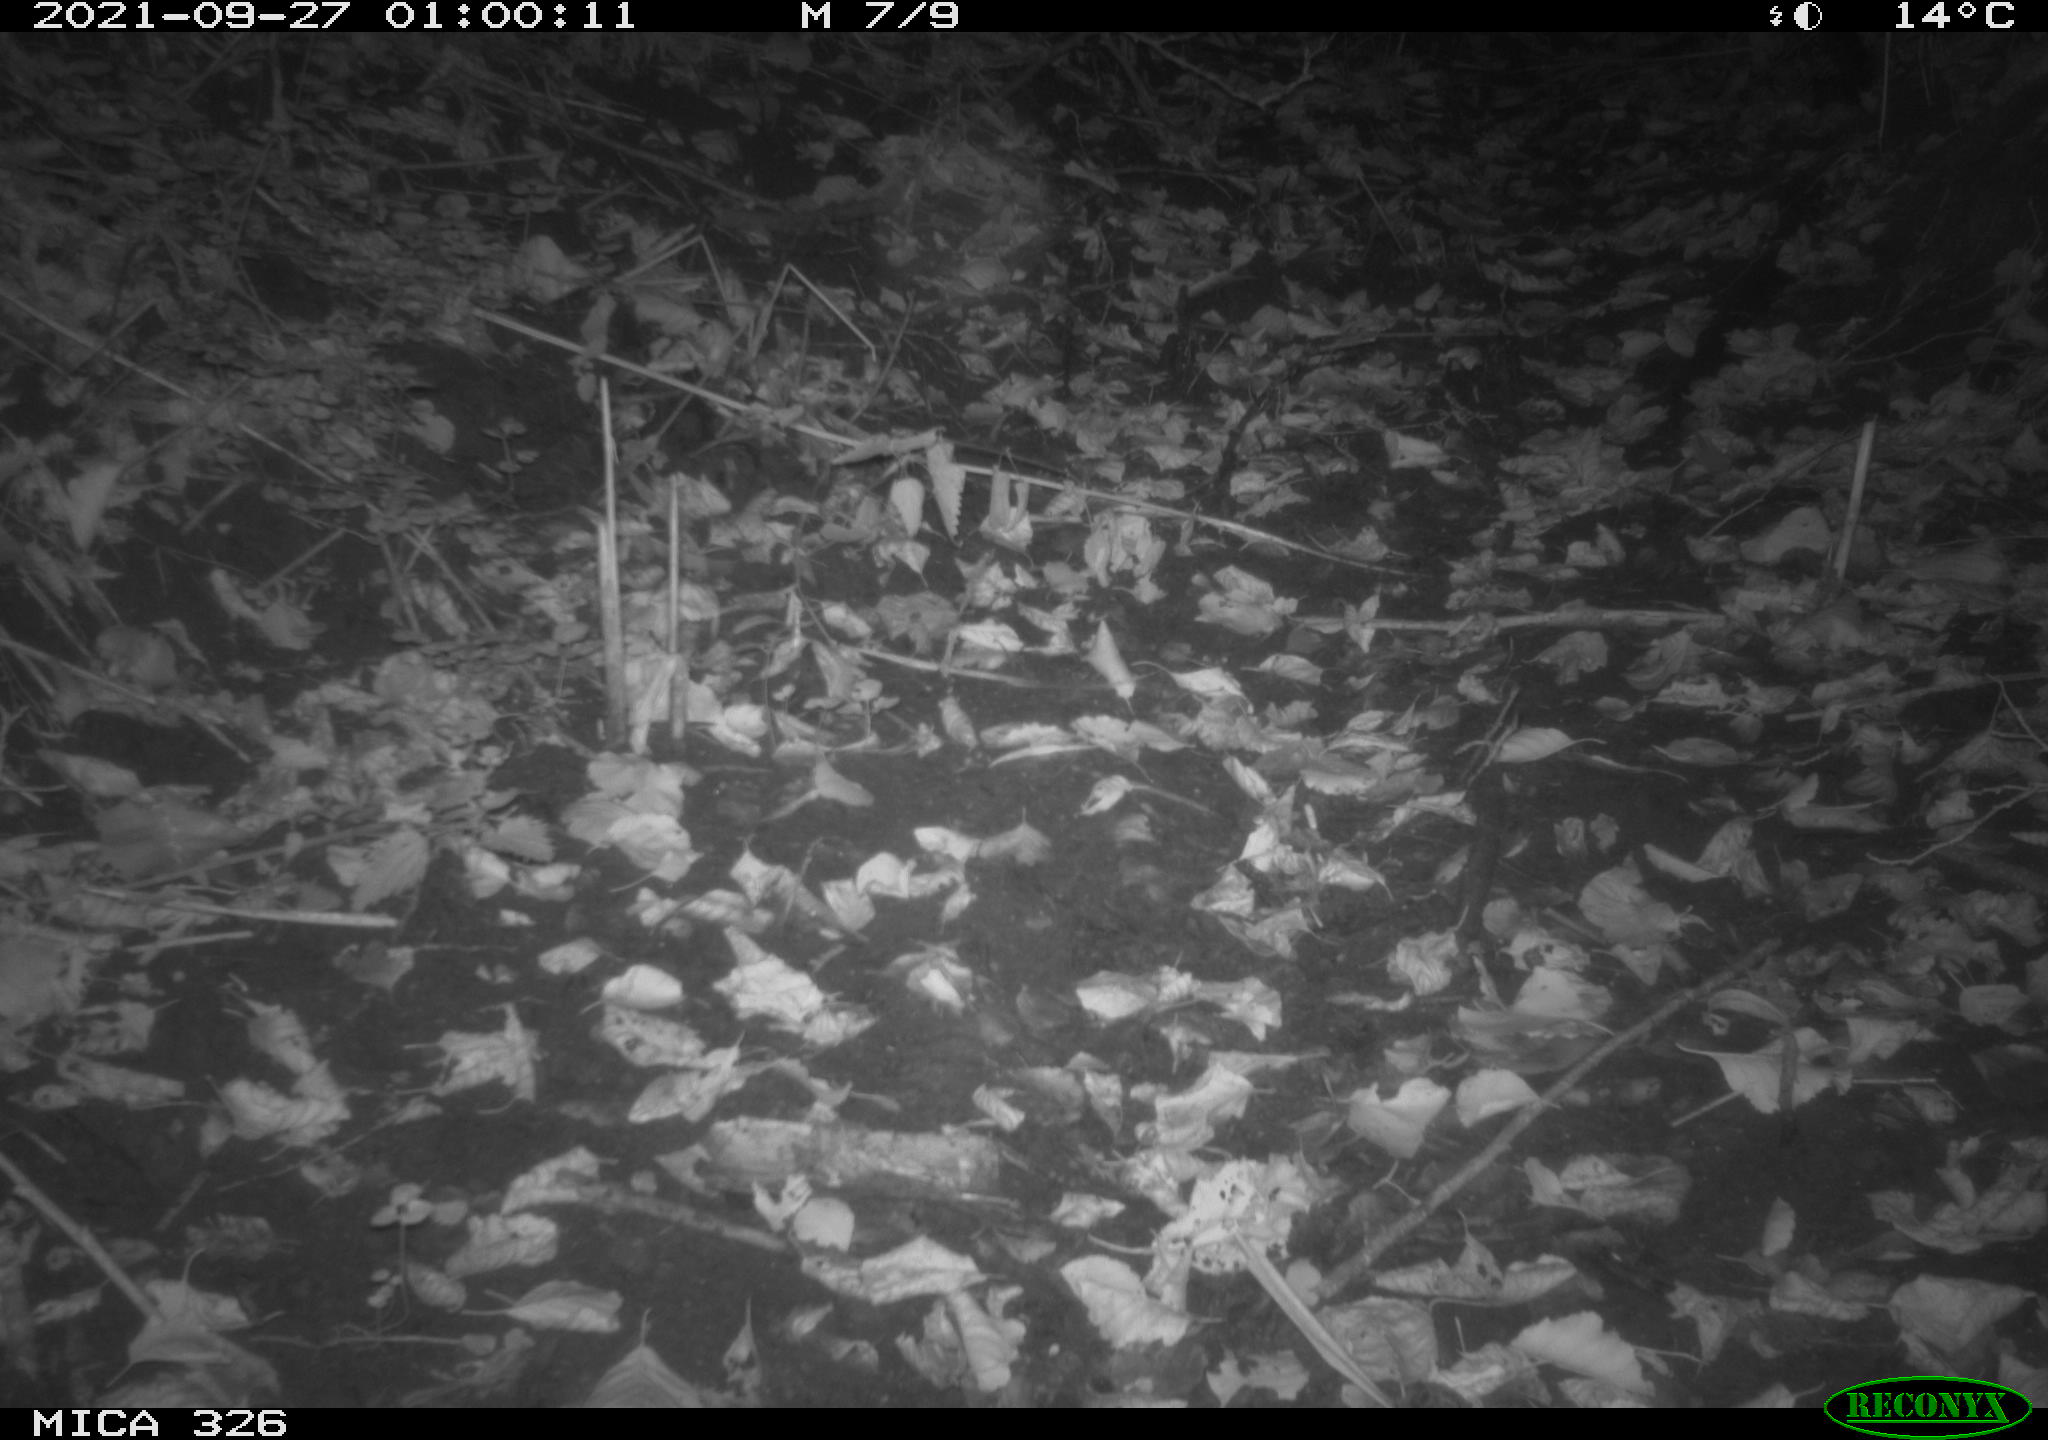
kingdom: Animalia
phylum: Chordata
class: Mammalia
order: Rodentia
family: Myocastoridae
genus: Myocastor
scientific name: Myocastor coypus
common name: Coypu
